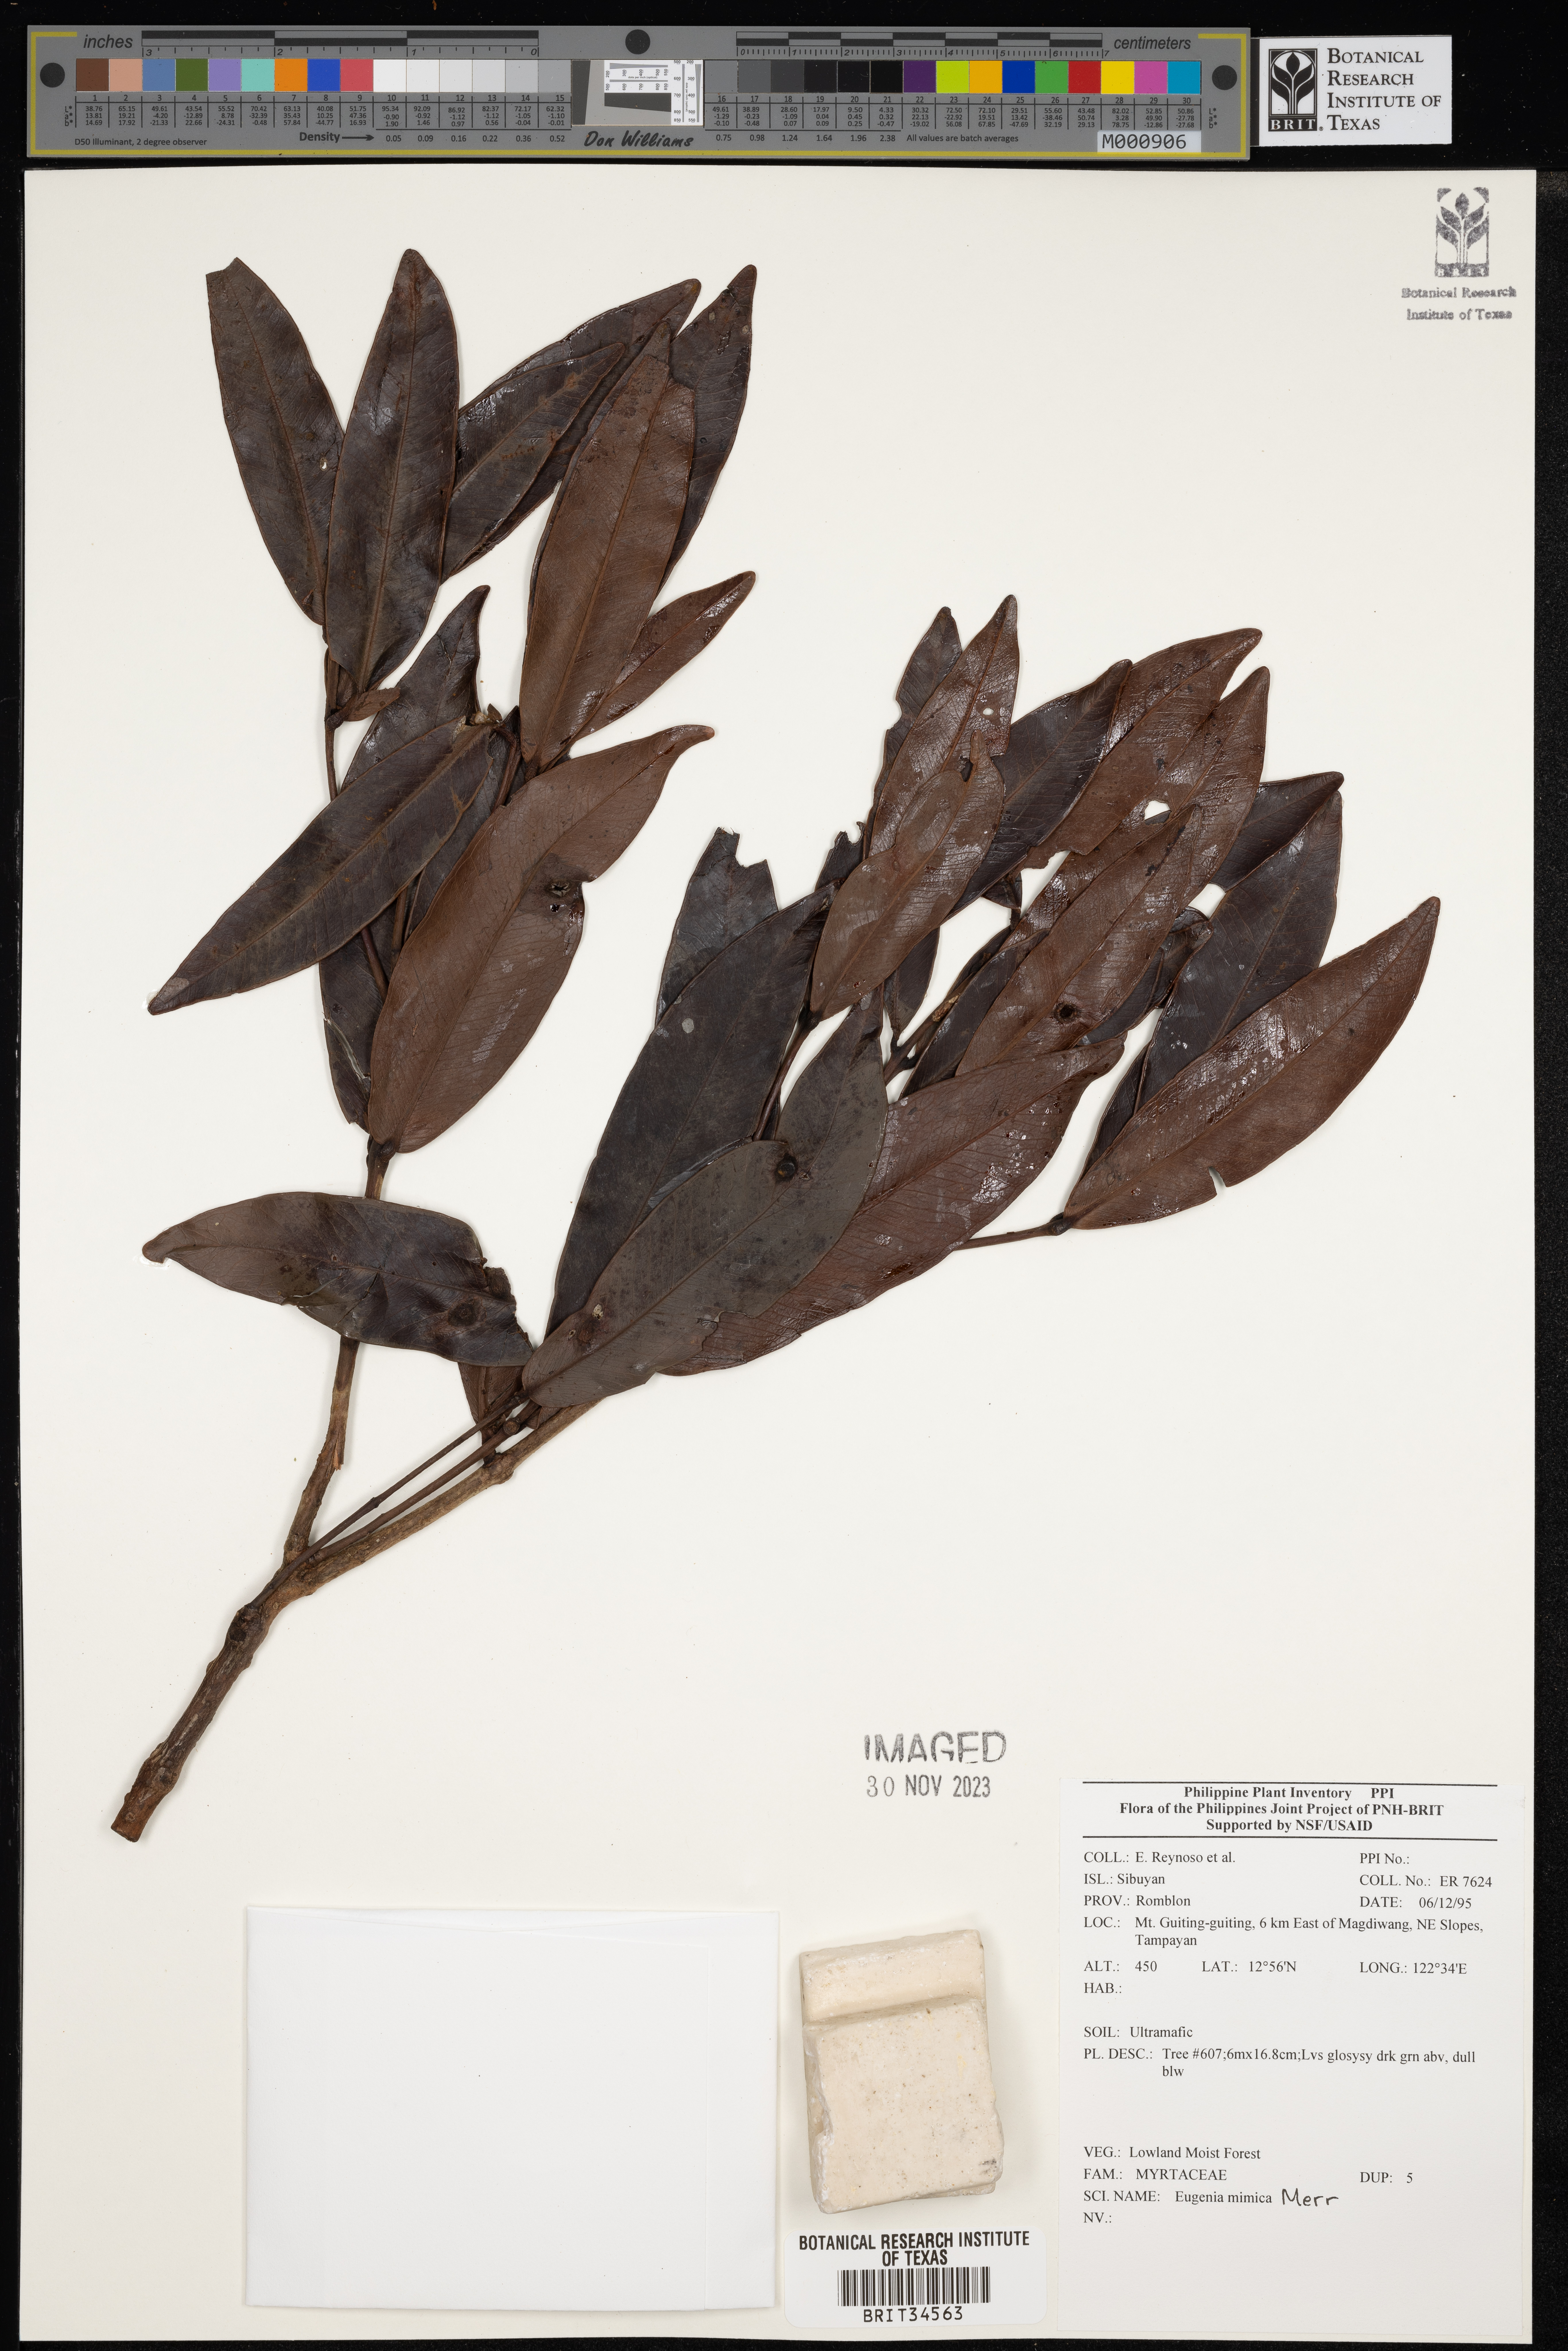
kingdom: Plantae
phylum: Tracheophyta
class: Magnoliopsida
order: Myrtales
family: Myrtaceae
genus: Eugenia
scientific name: Eugenia
